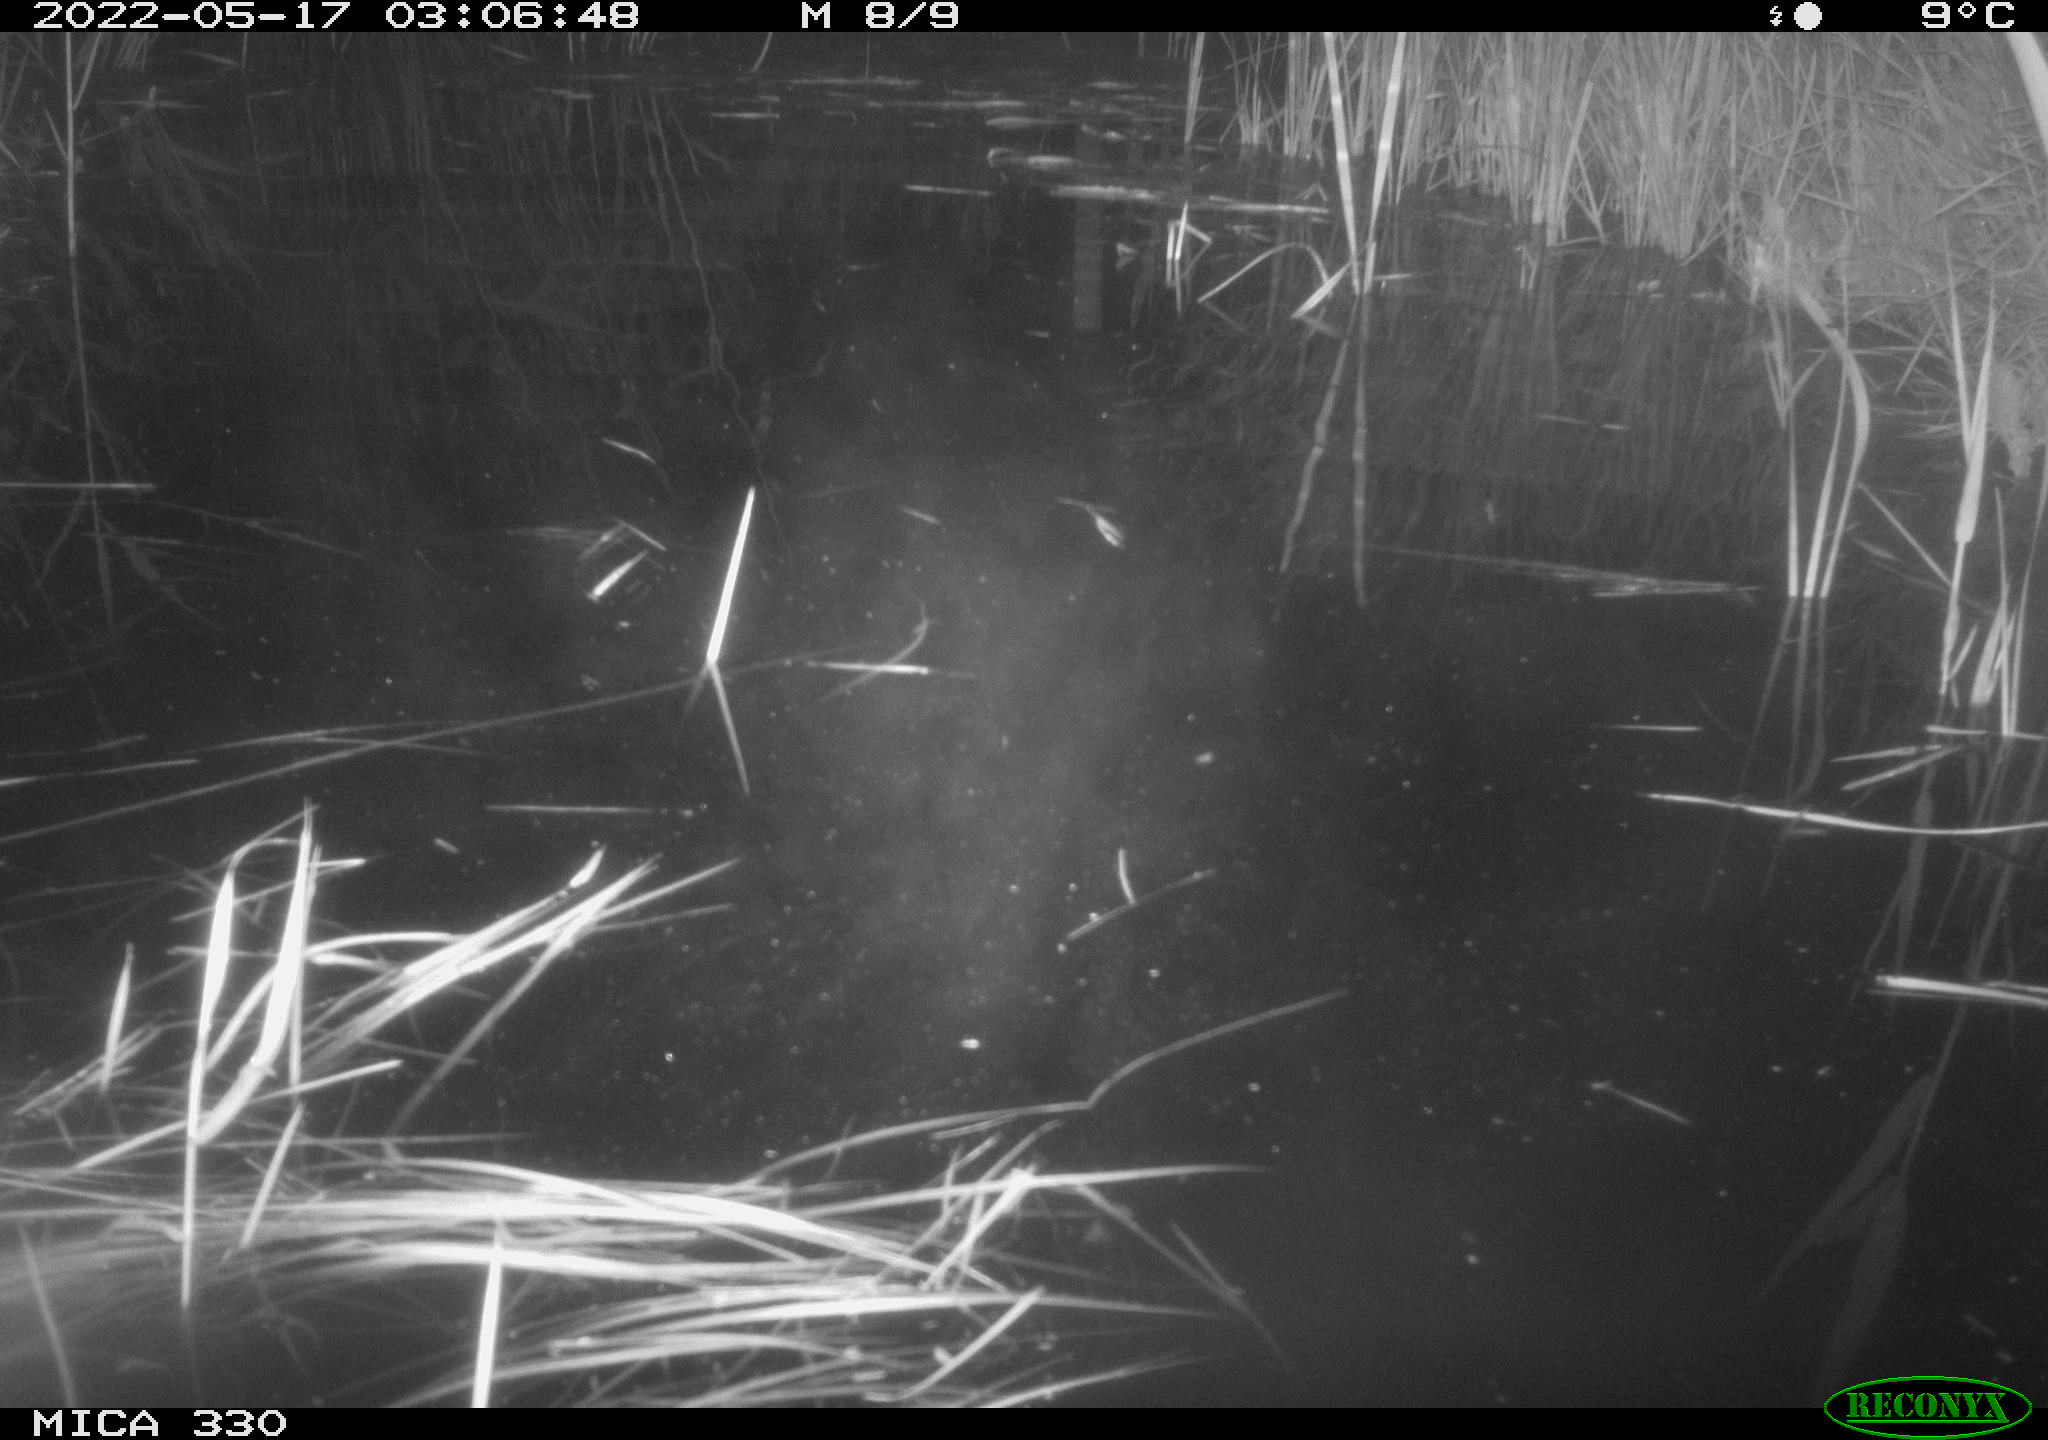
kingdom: Animalia
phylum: Chordata
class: Aves
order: Anseriformes
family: Anatidae
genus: Anas
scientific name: Anas platyrhynchos
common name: Mallard
